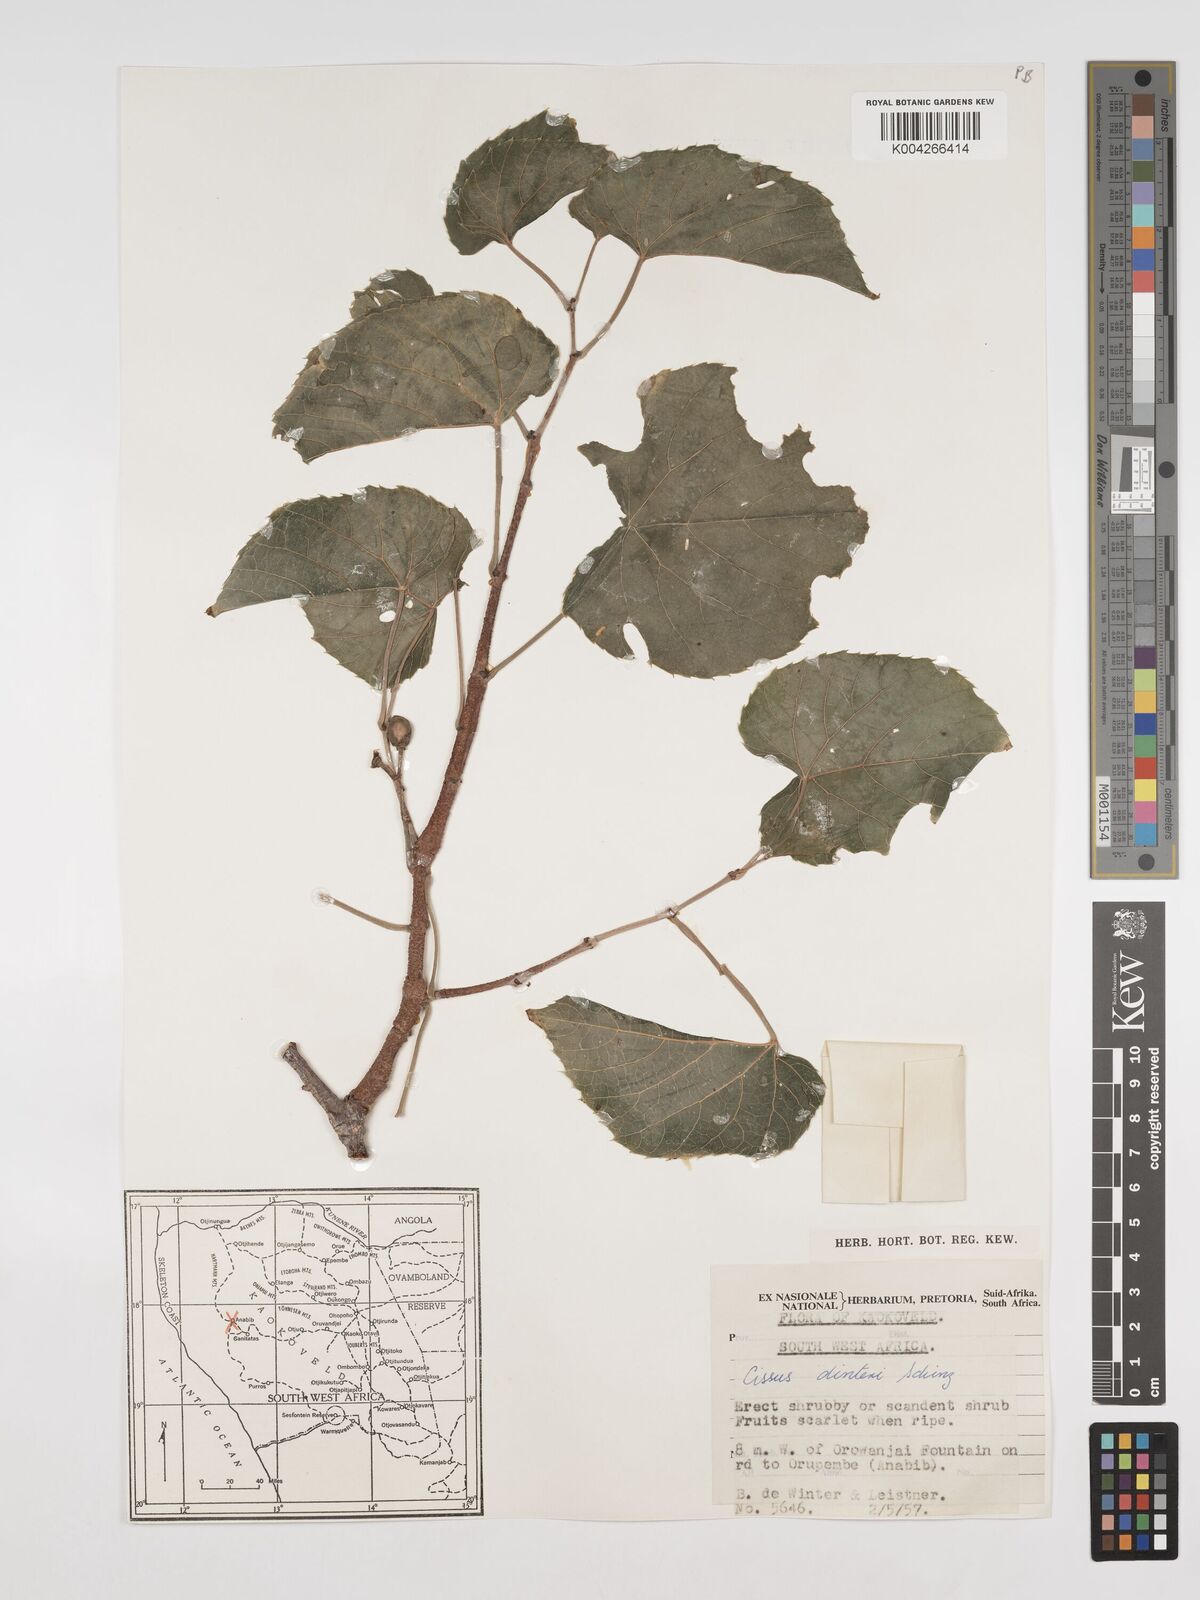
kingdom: Plantae
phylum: Tracheophyta
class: Magnoliopsida
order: Vitales
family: Vitaceae
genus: Cissus
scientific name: Cissus nymphaeifolia
